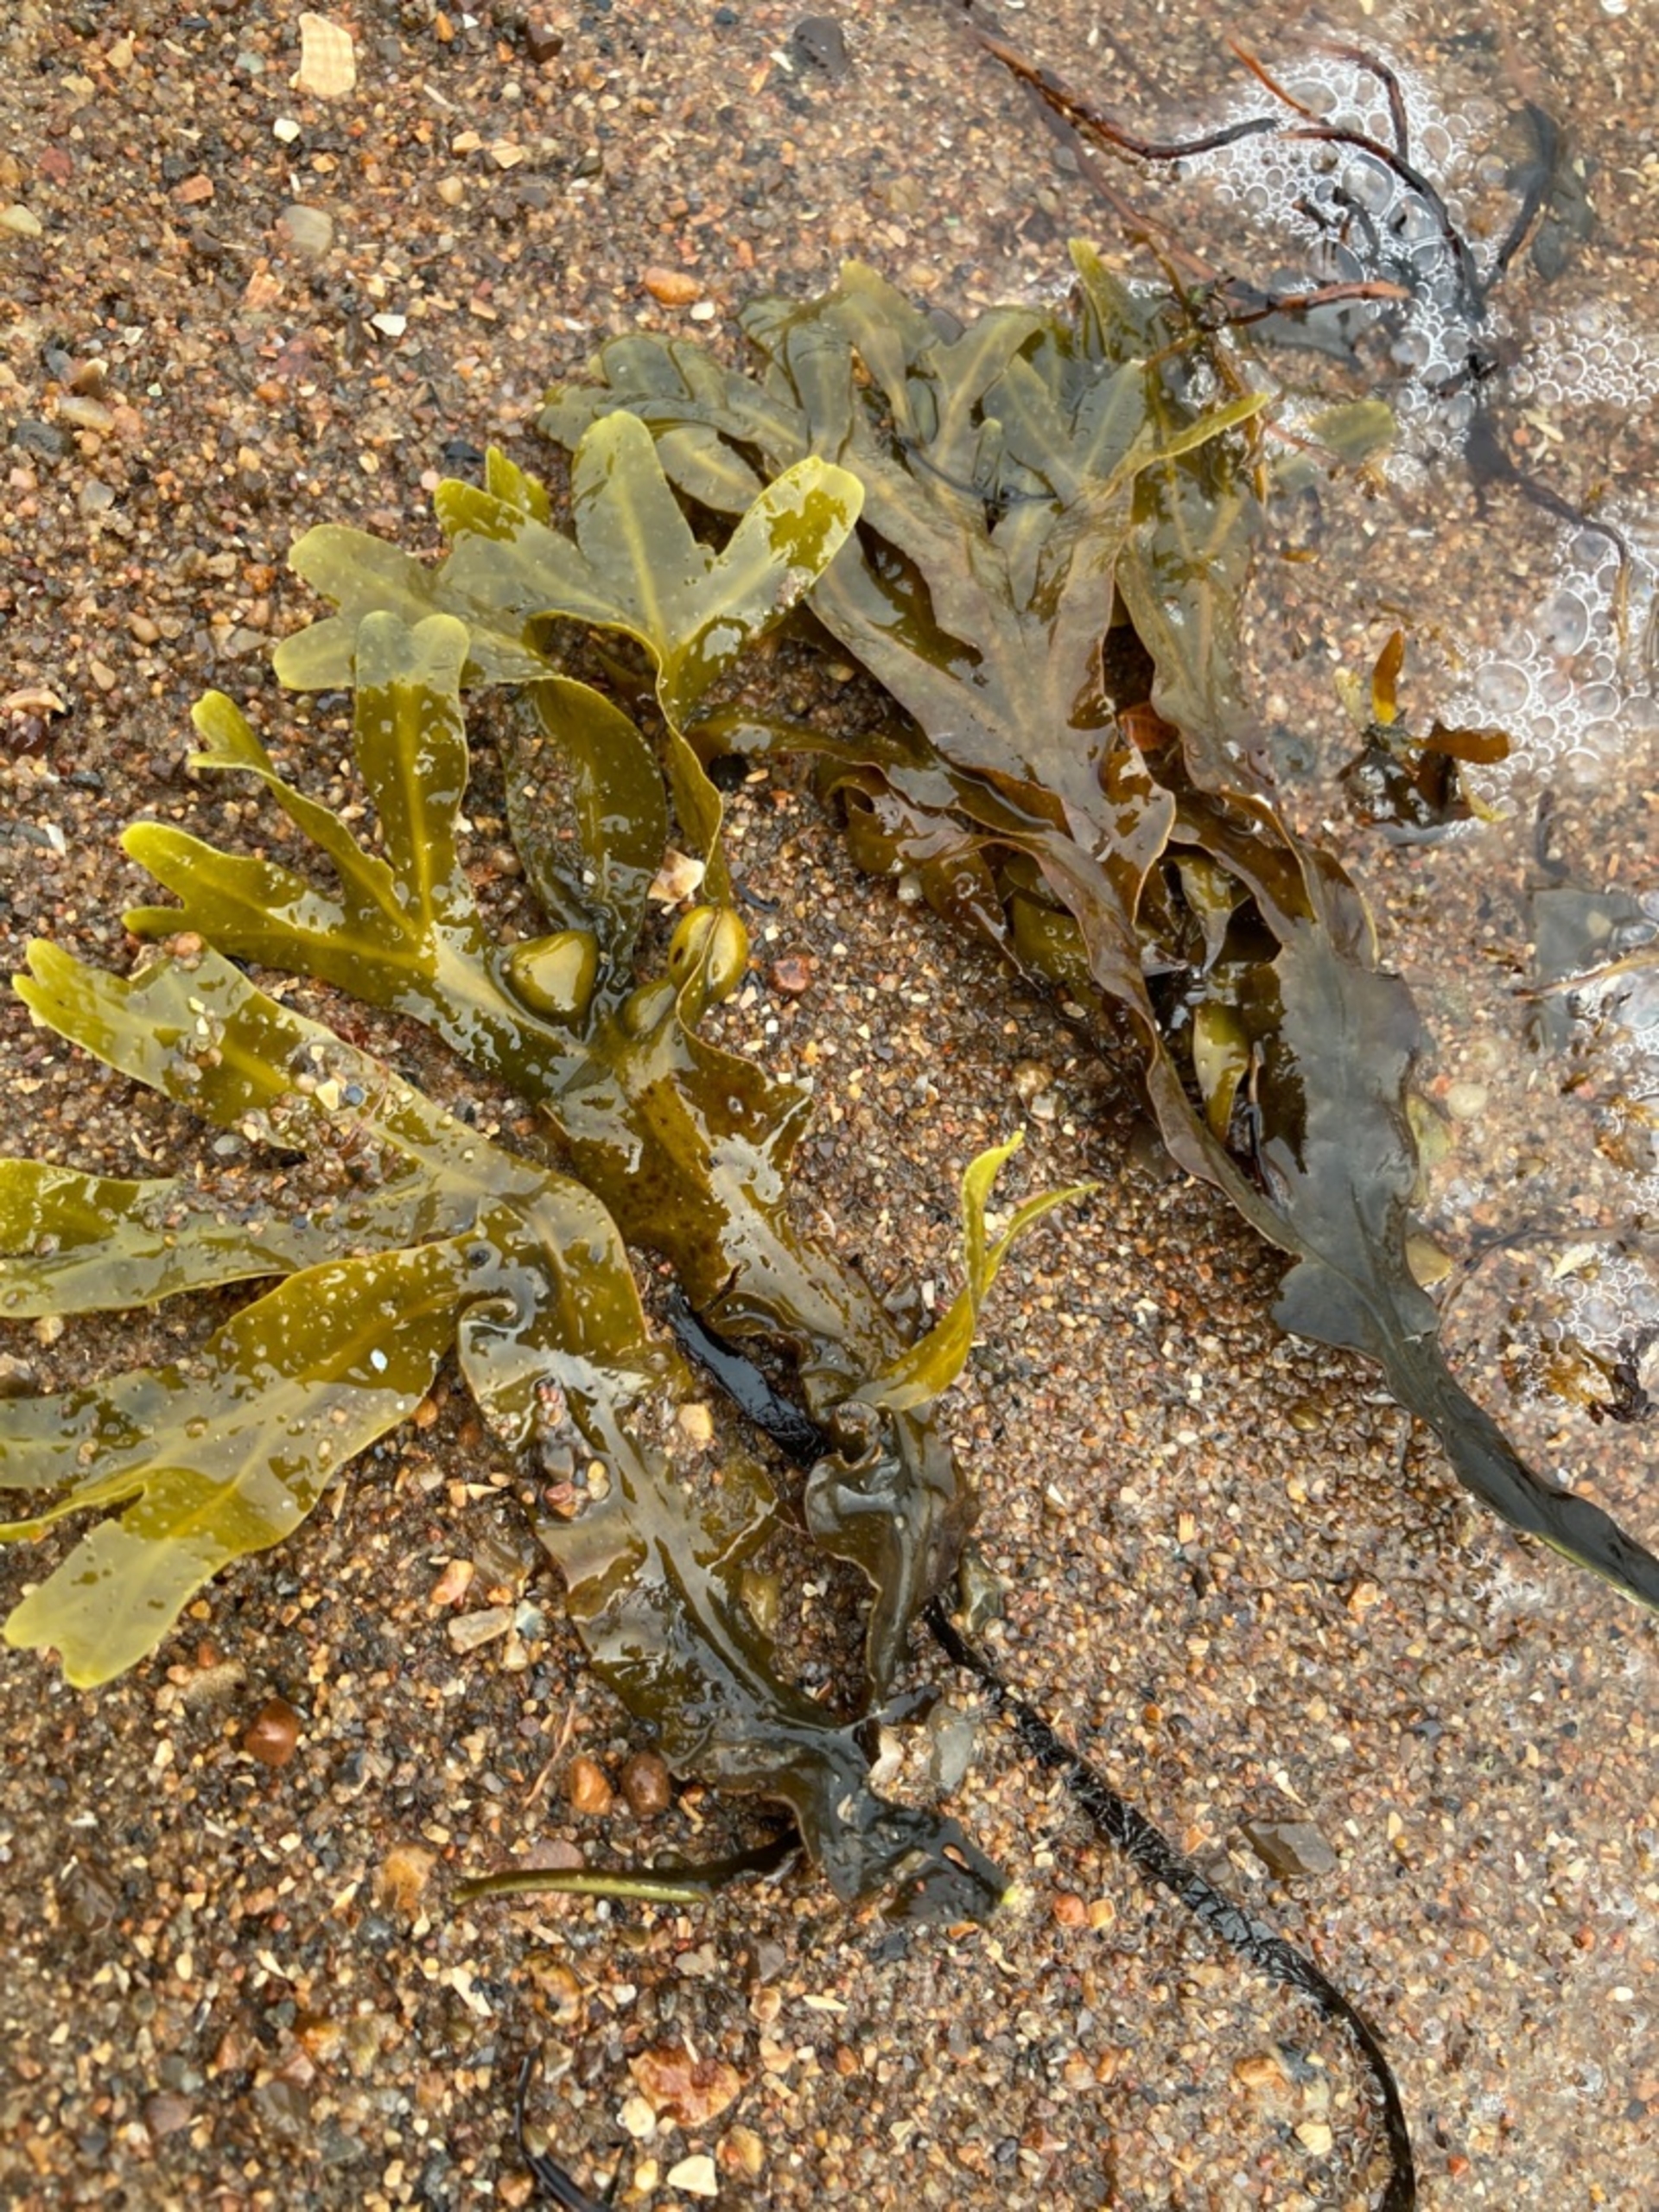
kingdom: Chromista
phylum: Ochrophyta
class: Phaeophyceae
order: Fucales
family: Fucaceae
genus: Fucus
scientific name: Fucus vesiculosus
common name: Blæretang
